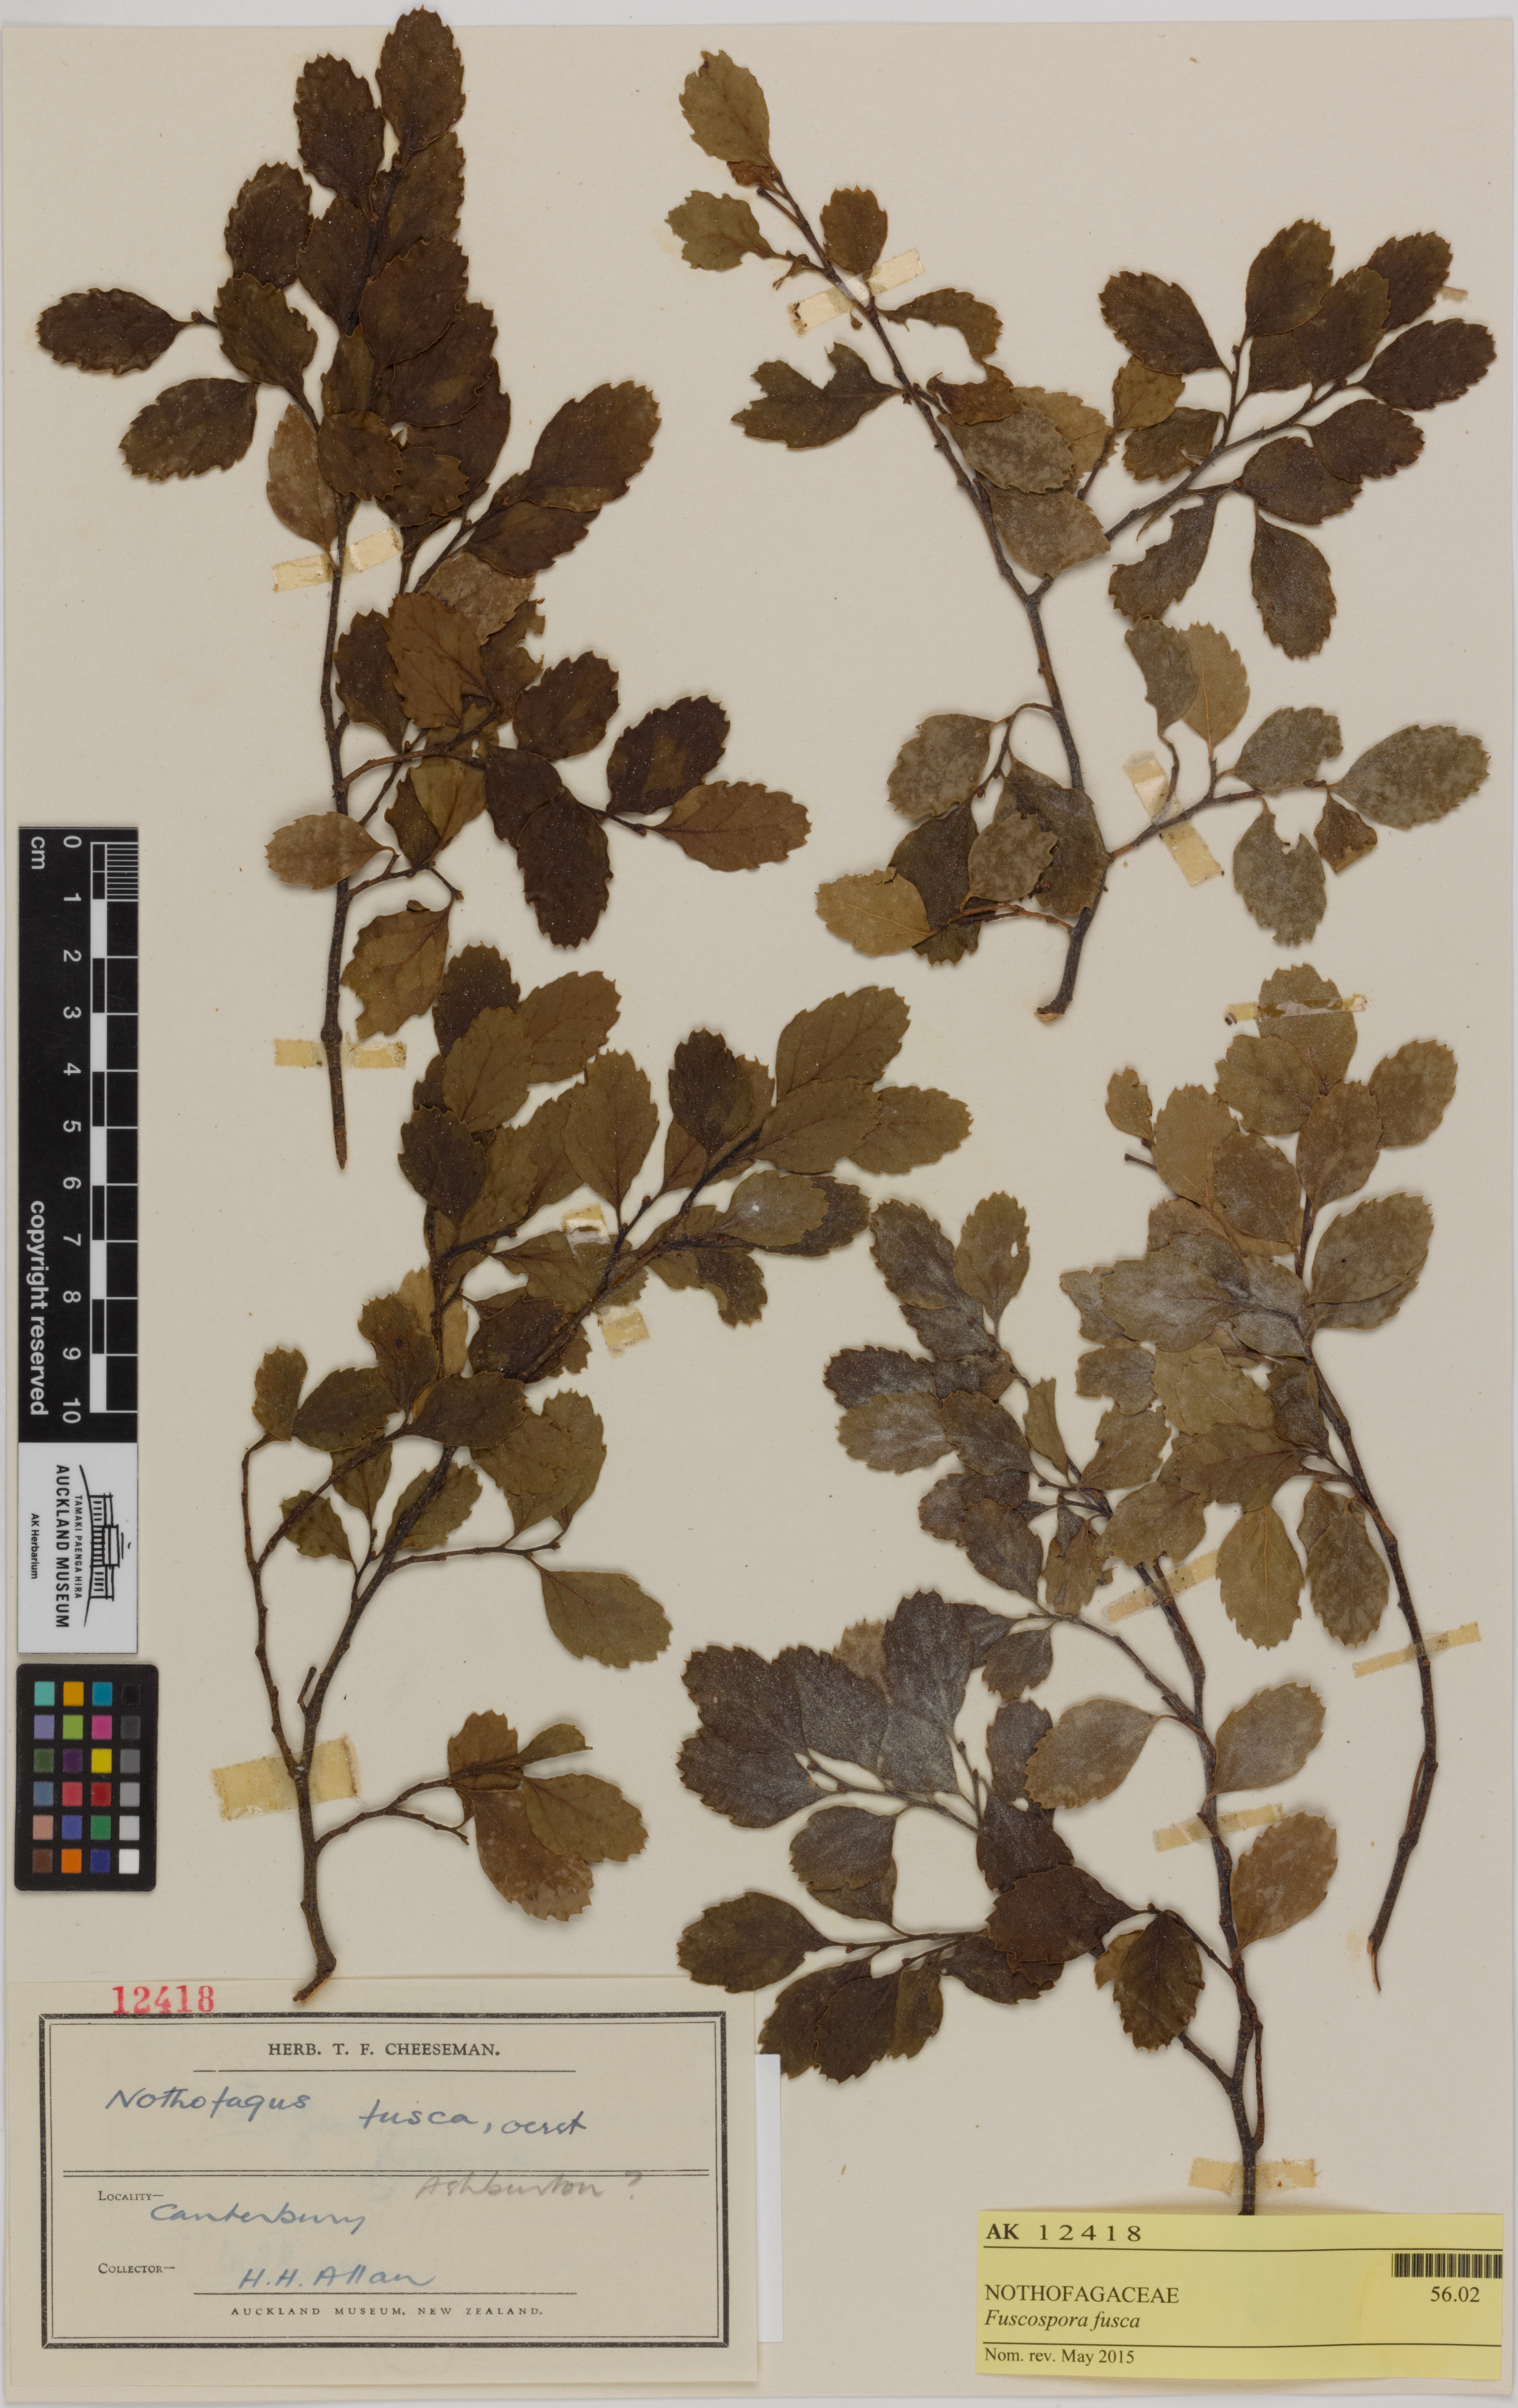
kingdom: Plantae
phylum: Tracheophyta
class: Magnoliopsida
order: Fagales
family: Nothofagaceae
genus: Nothofagus
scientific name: Nothofagus fusca
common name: Red beech
